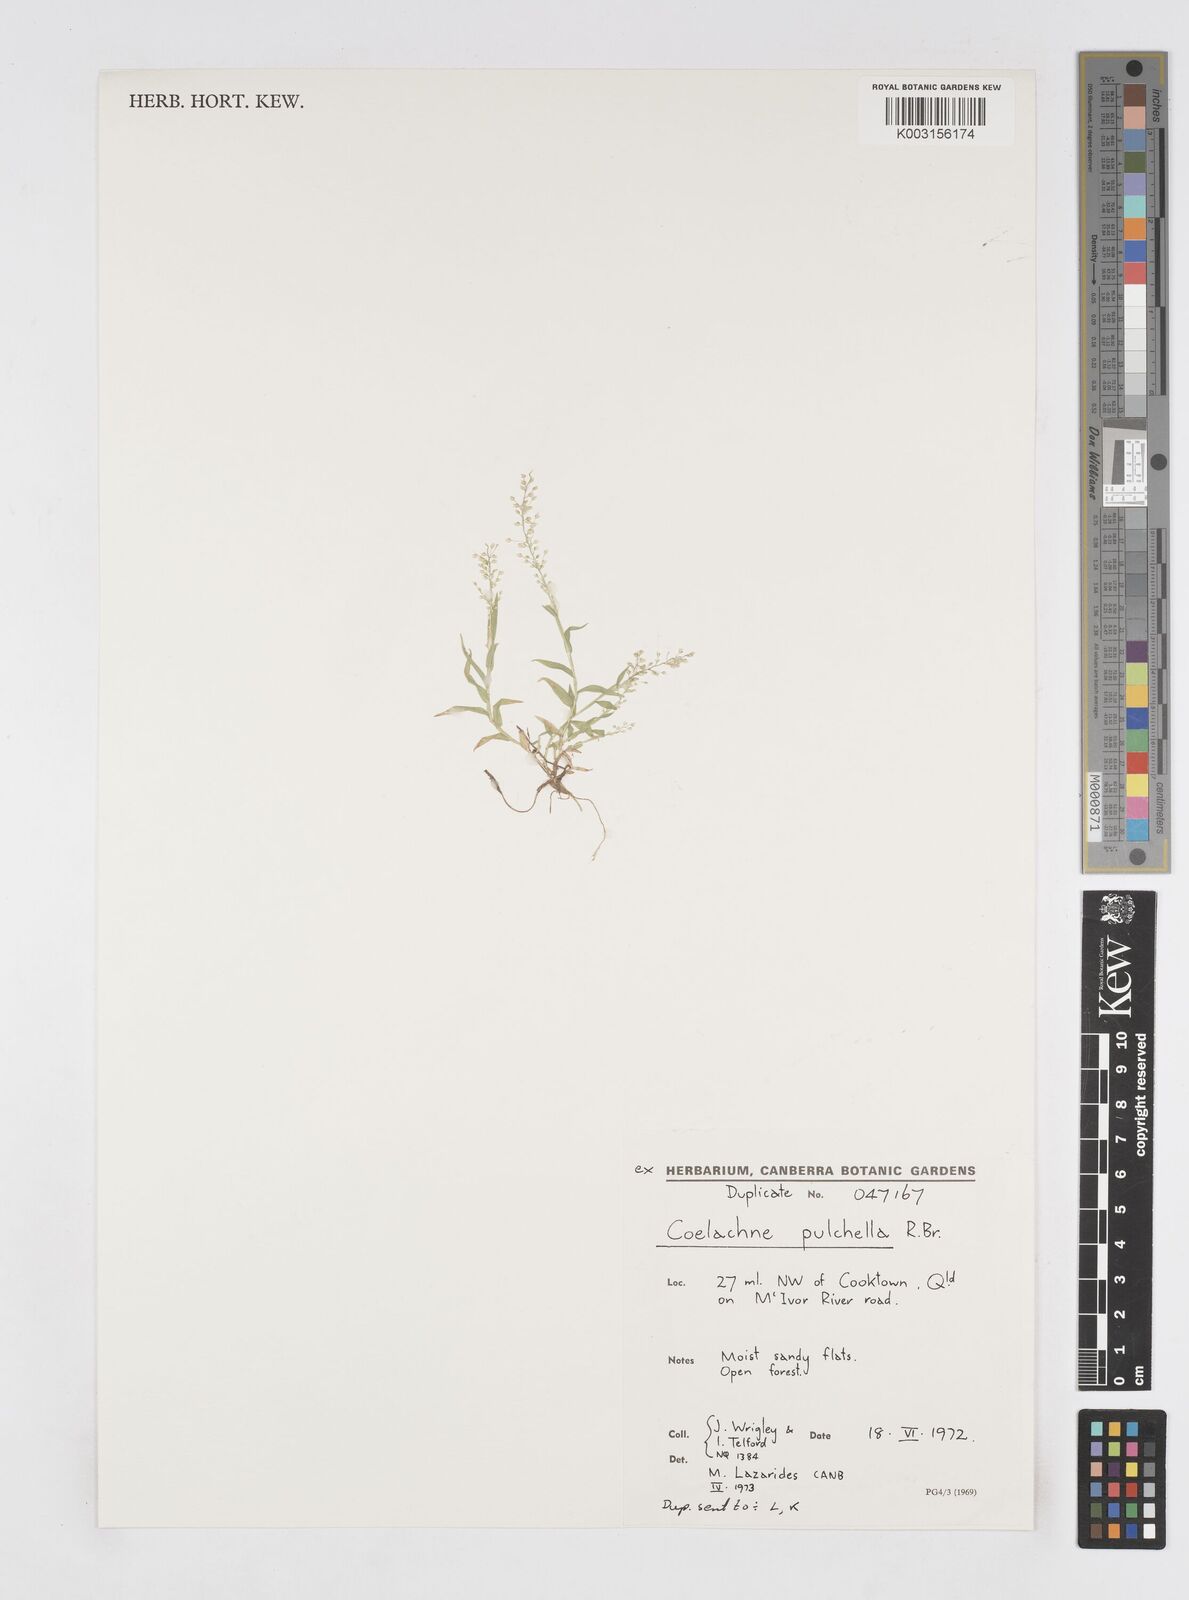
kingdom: Plantae
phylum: Tracheophyta
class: Liliopsida
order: Poales
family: Poaceae
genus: Coelachne
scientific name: Coelachne pulchella
